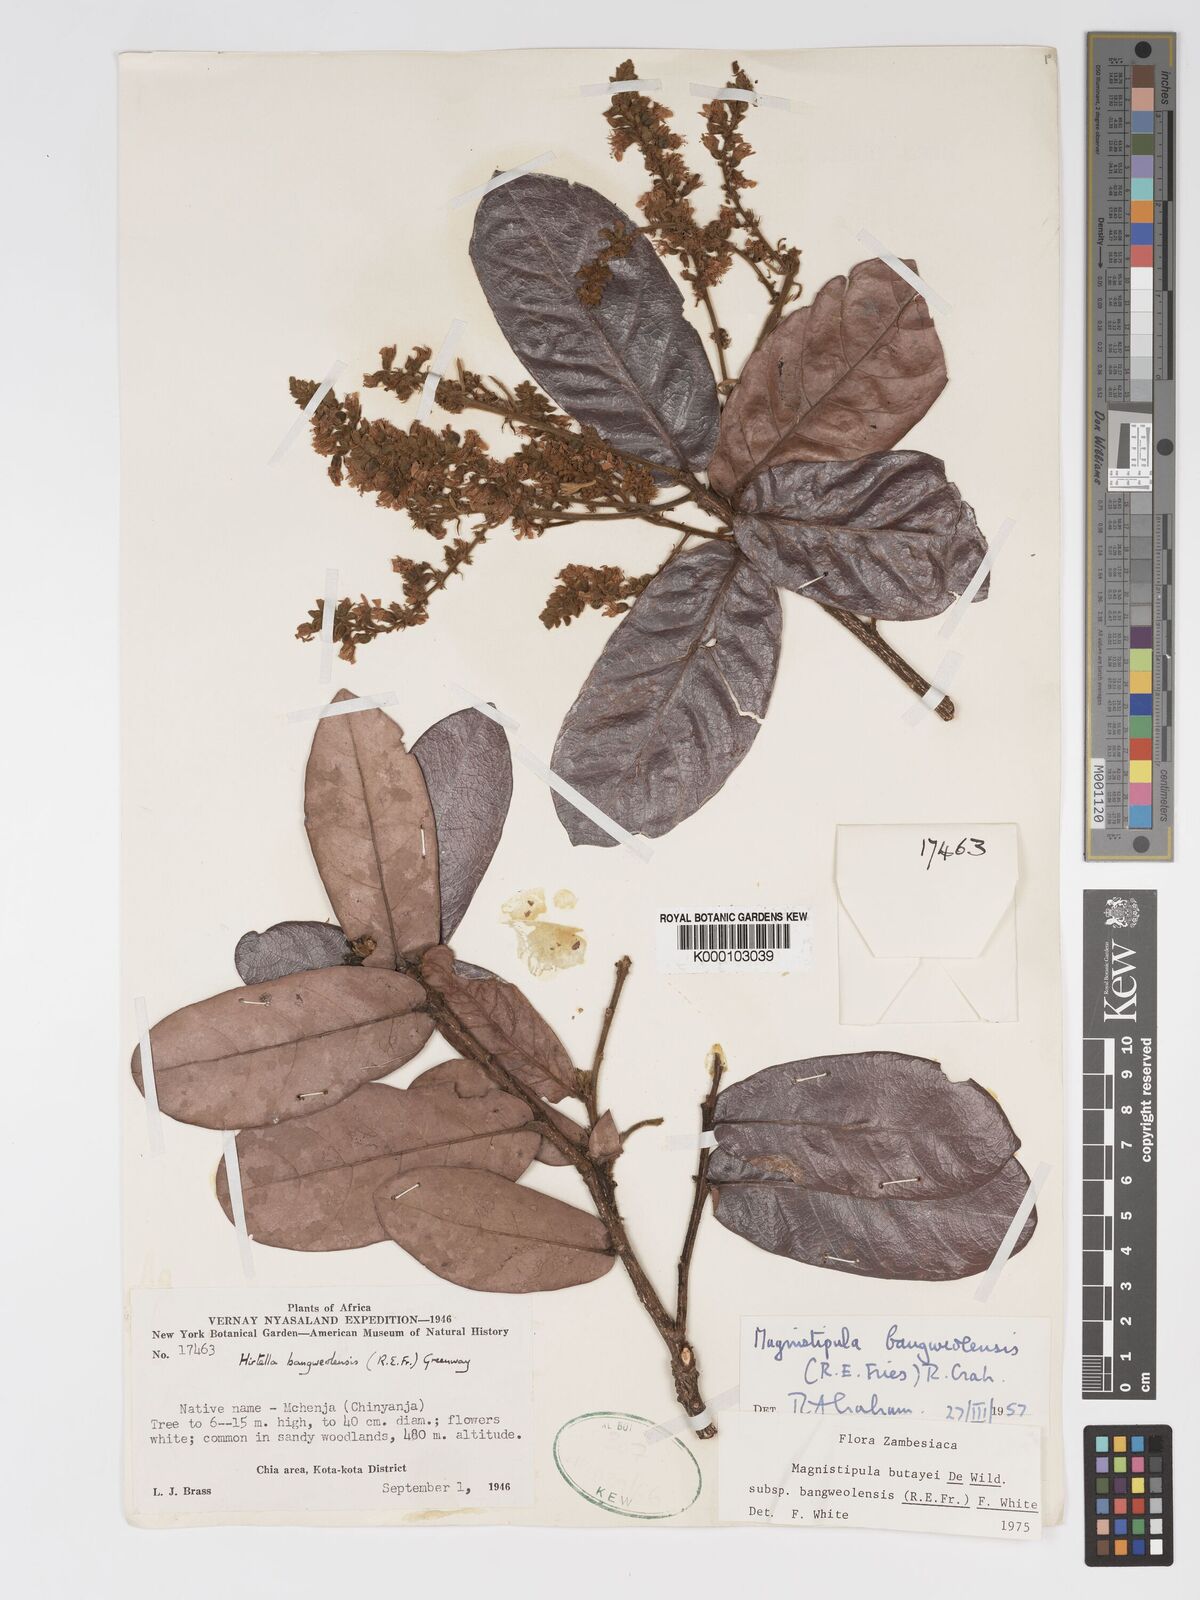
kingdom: Plantae
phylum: Tracheophyta
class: Magnoliopsida
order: Malpighiales
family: Chrysobalanaceae
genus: Magnistipula
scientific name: Magnistipula butayei
